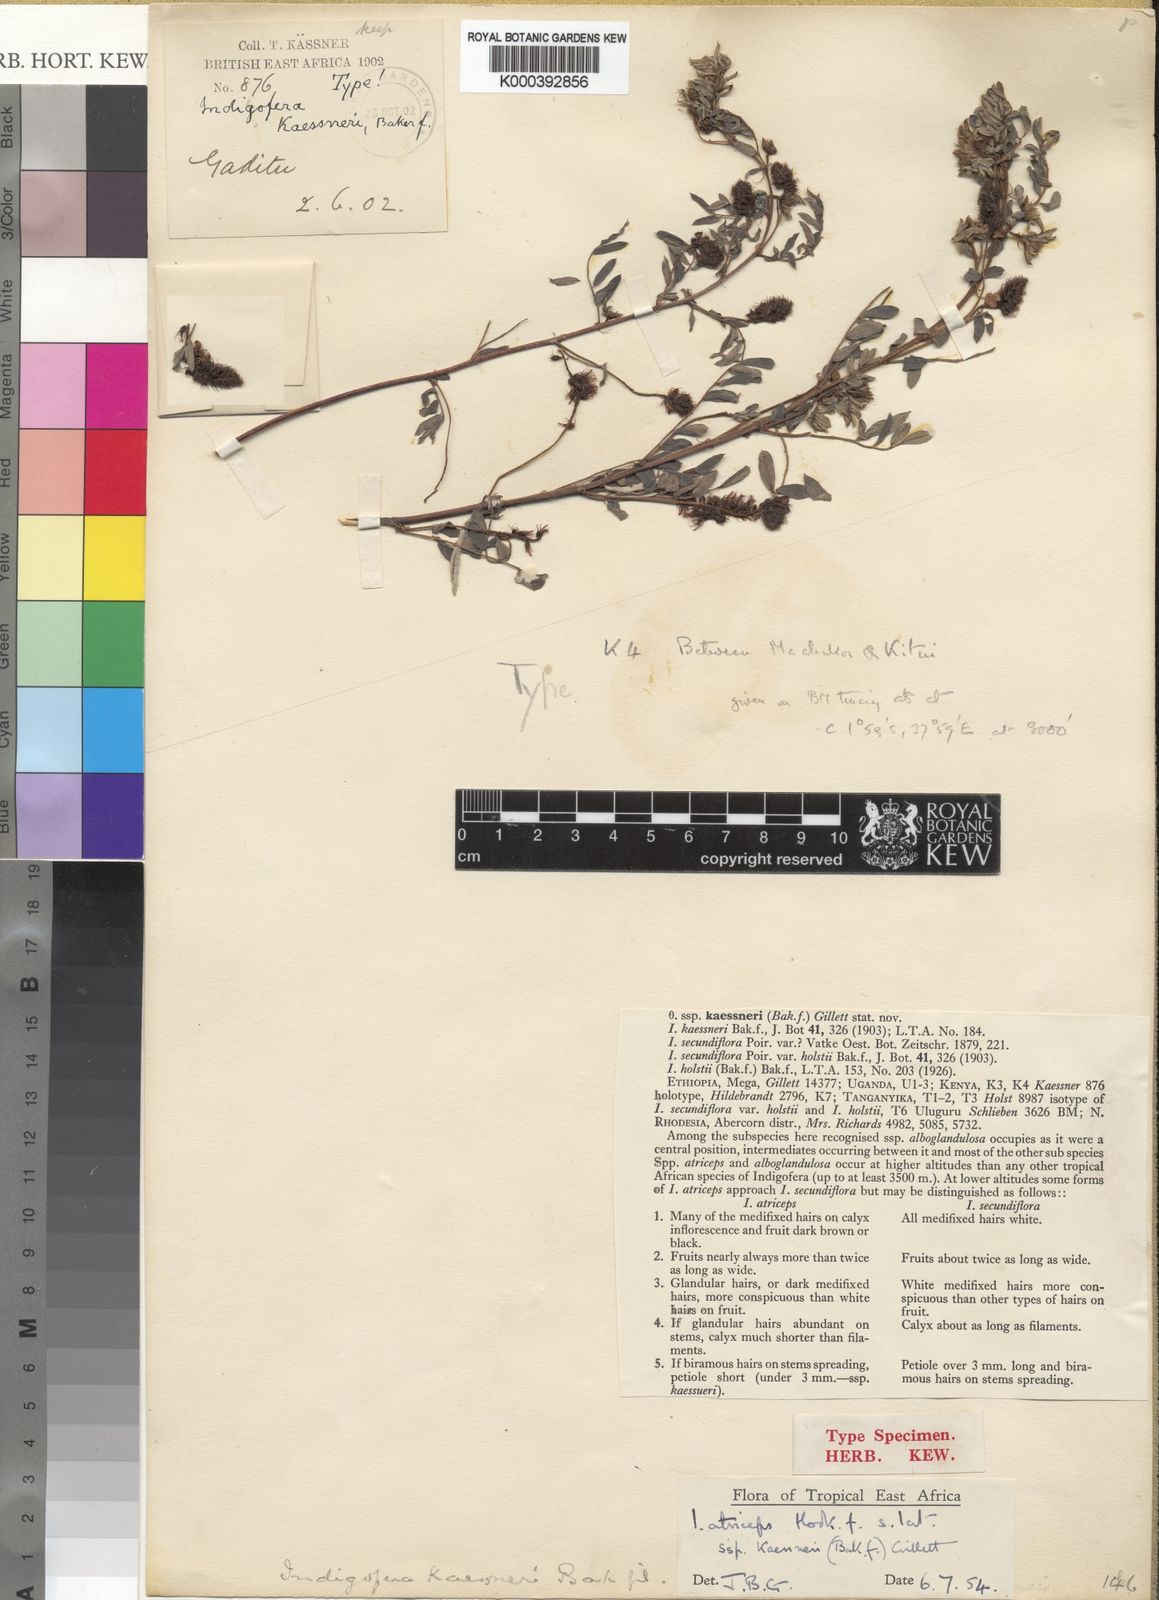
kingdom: Plantae
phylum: Tracheophyta
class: Magnoliopsida
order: Fabales
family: Fabaceae
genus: Indigofera
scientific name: Indigofera atriceps
